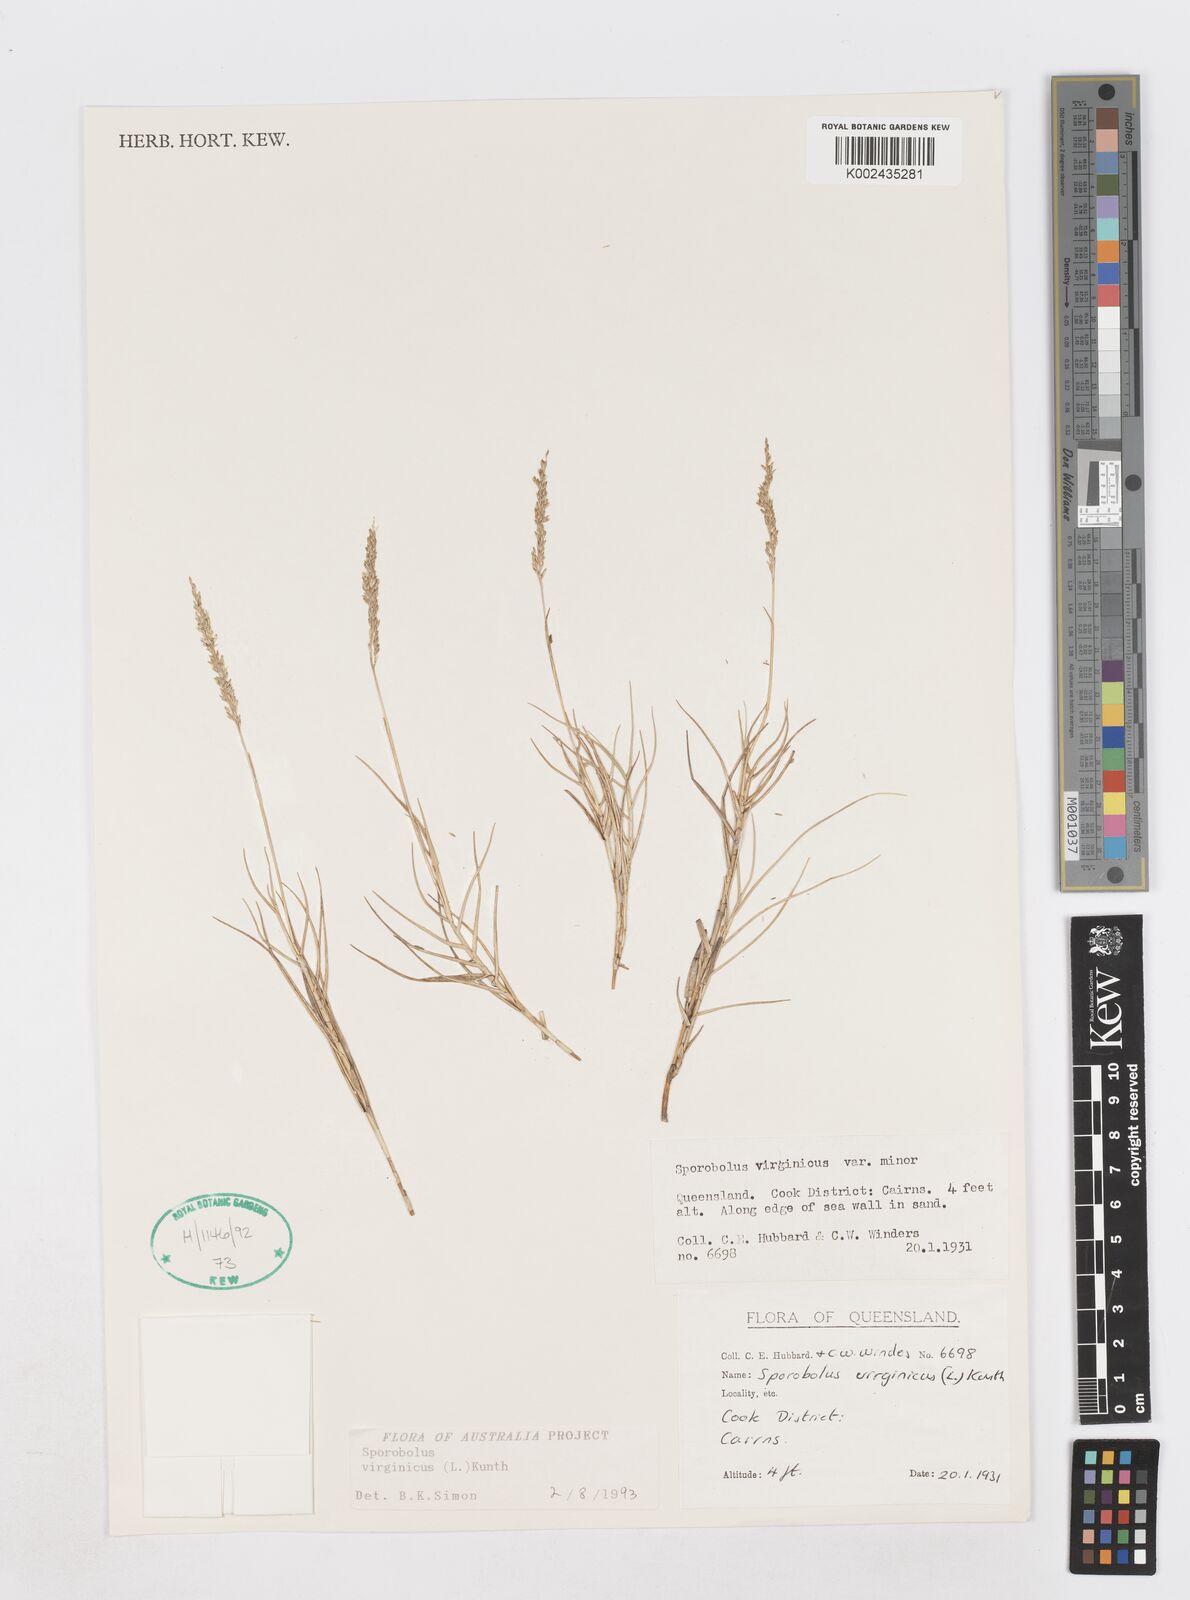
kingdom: Plantae
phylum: Tracheophyta
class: Liliopsida
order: Poales
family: Poaceae
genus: Sporobolus
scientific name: Sporobolus virginicus
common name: Beach dropseed
